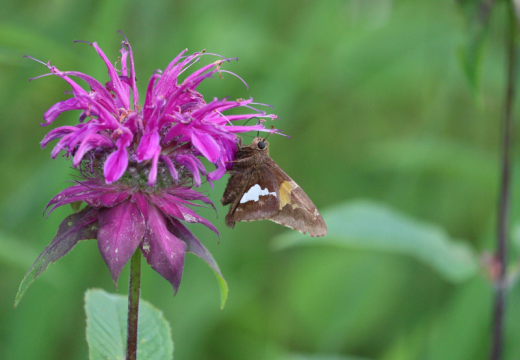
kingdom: Animalia
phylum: Arthropoda
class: Insecta
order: Lepidoptera
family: Hesperiidae
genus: Epargyreus
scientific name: Epargyreus clarus
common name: Silver-spotted Skipper
